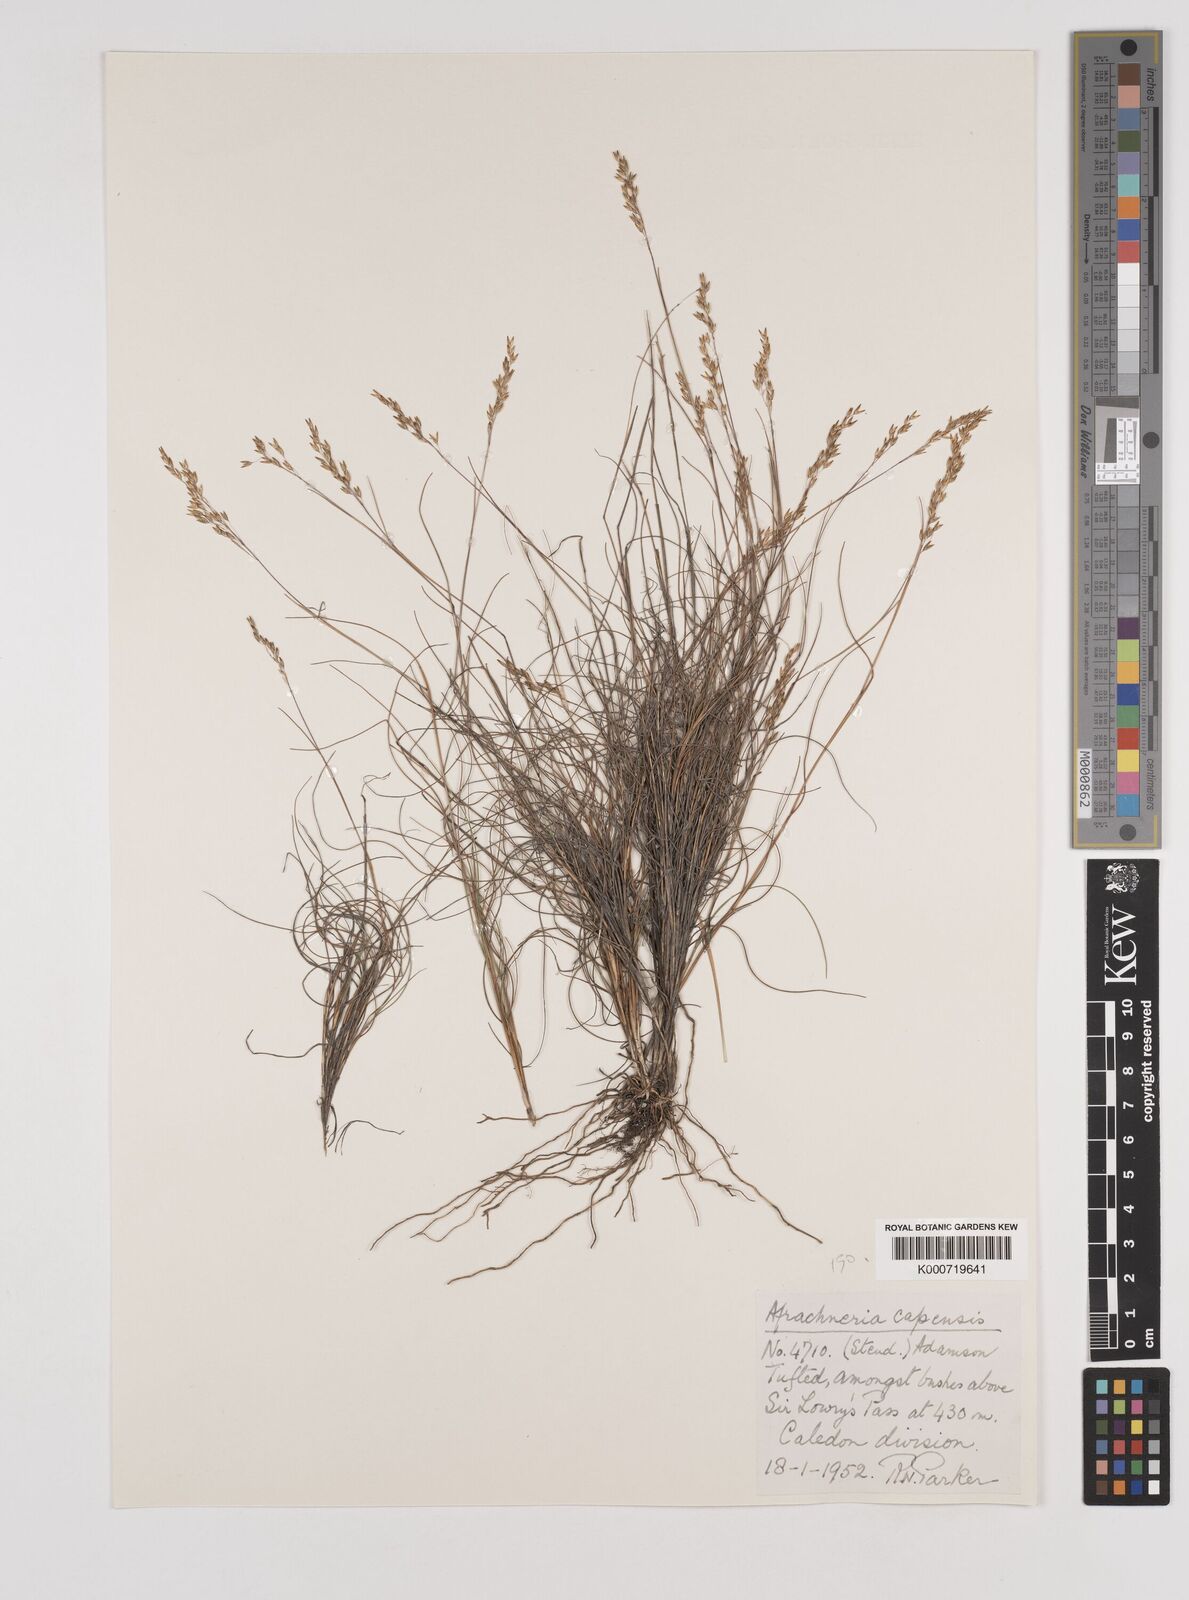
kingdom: Plantae
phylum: Tracheophyta
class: Liliopsida
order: Poales
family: Poaceae
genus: Pentameris
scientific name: Pentameris malouinensis
